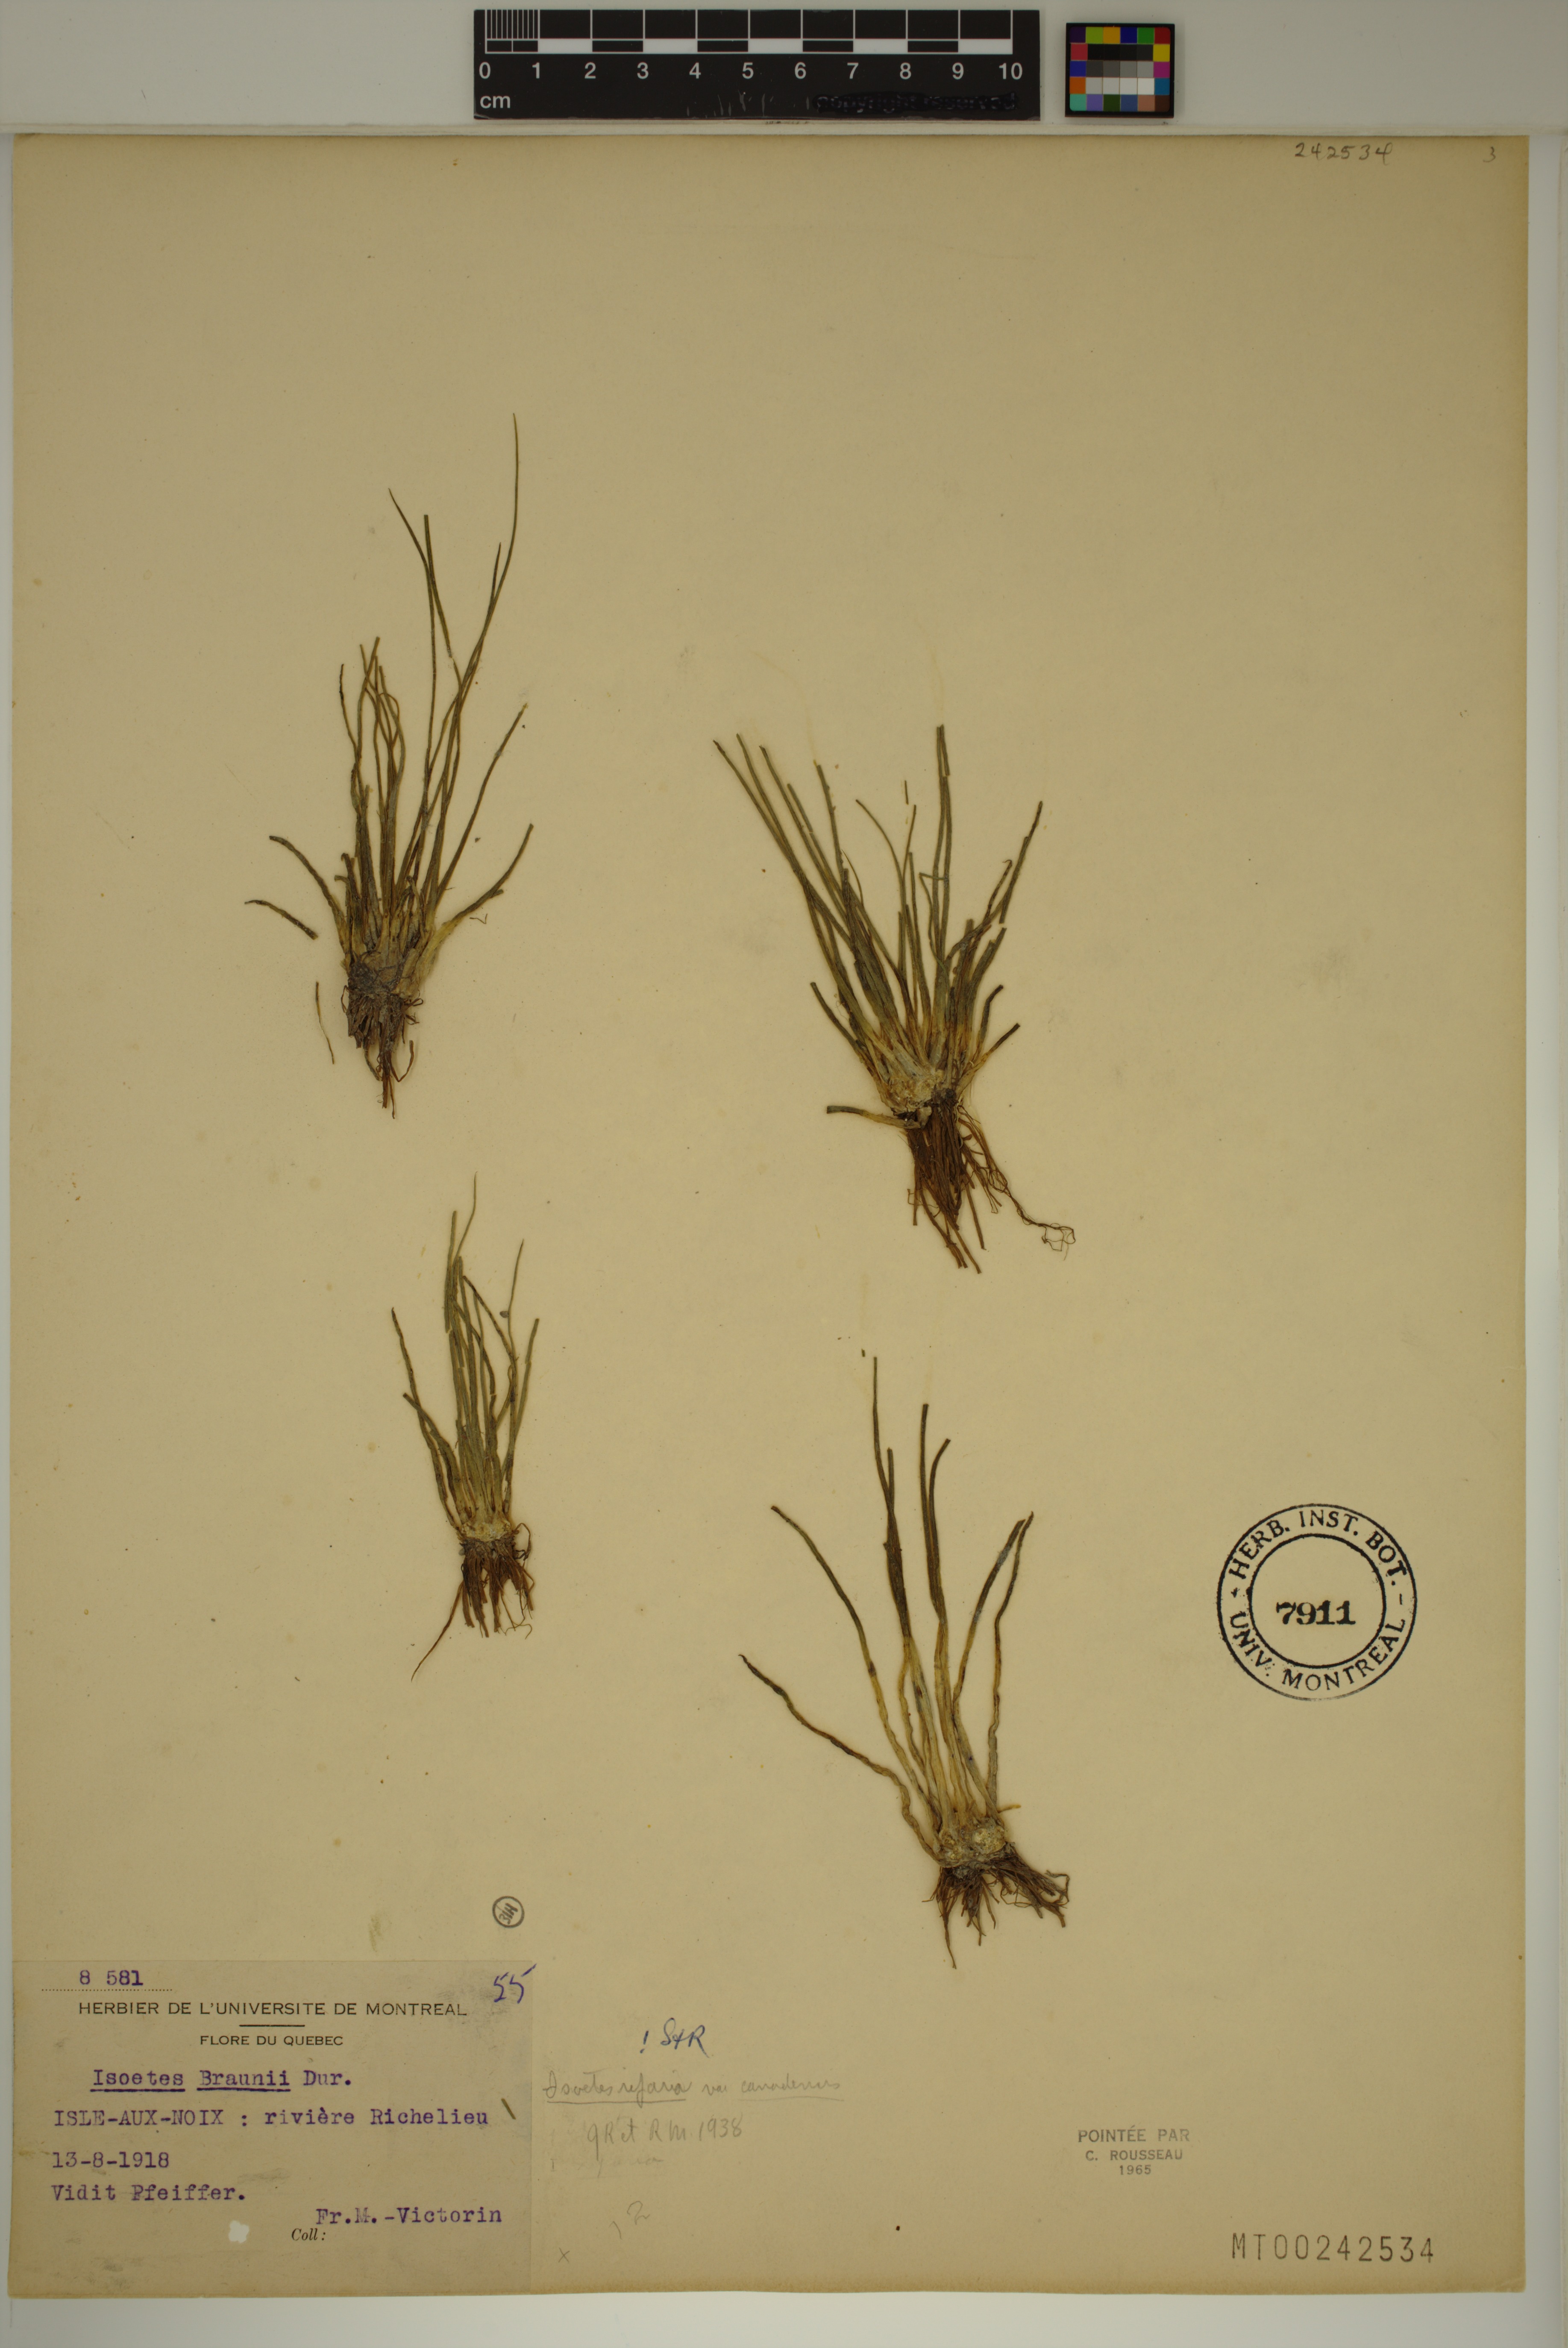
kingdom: Plantae
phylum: Tracheophyta
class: Lycopodiopsida
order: Isoetales
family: Isoetaceae
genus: Isoetes
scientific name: Isoetes septentrionalis
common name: Northern quillwort
